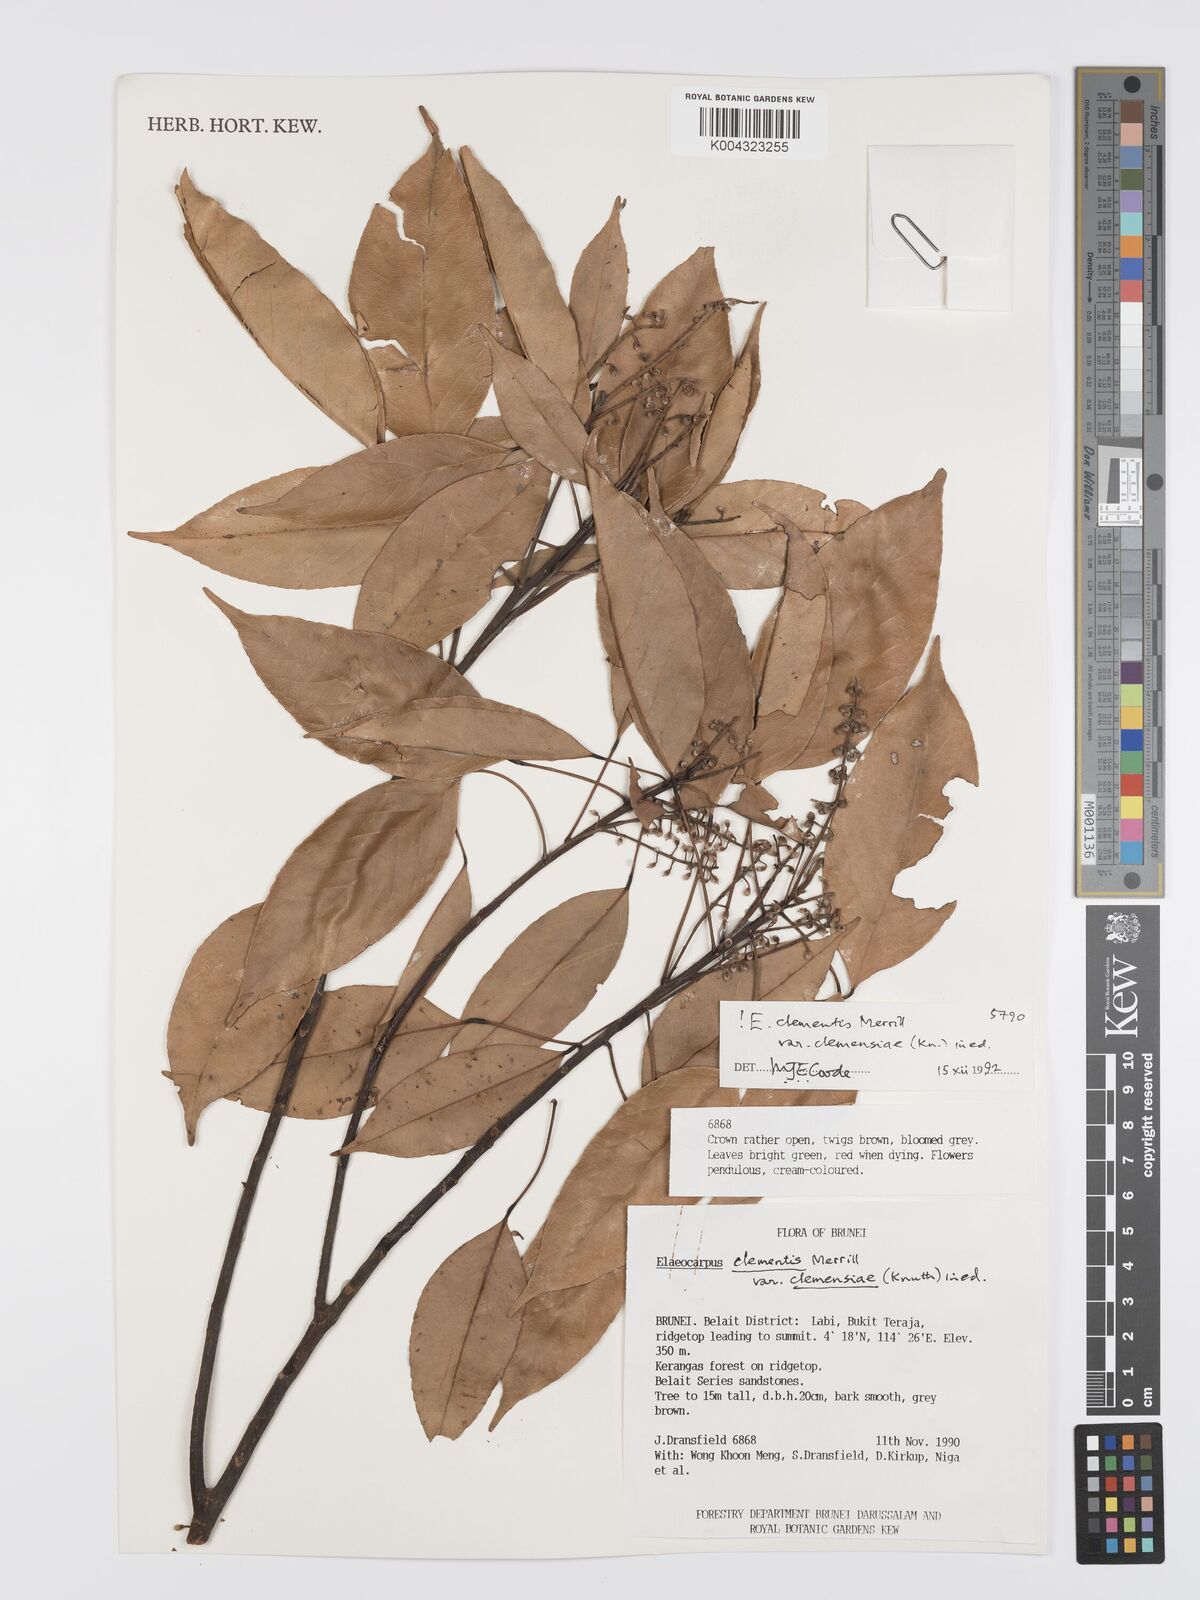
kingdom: Plantae
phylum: Tracheophyta
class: Magnoliopsida
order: Oxalidales
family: Elaeocarpaceae
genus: Elaeocarpus
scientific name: Elaeocarpus clementis
